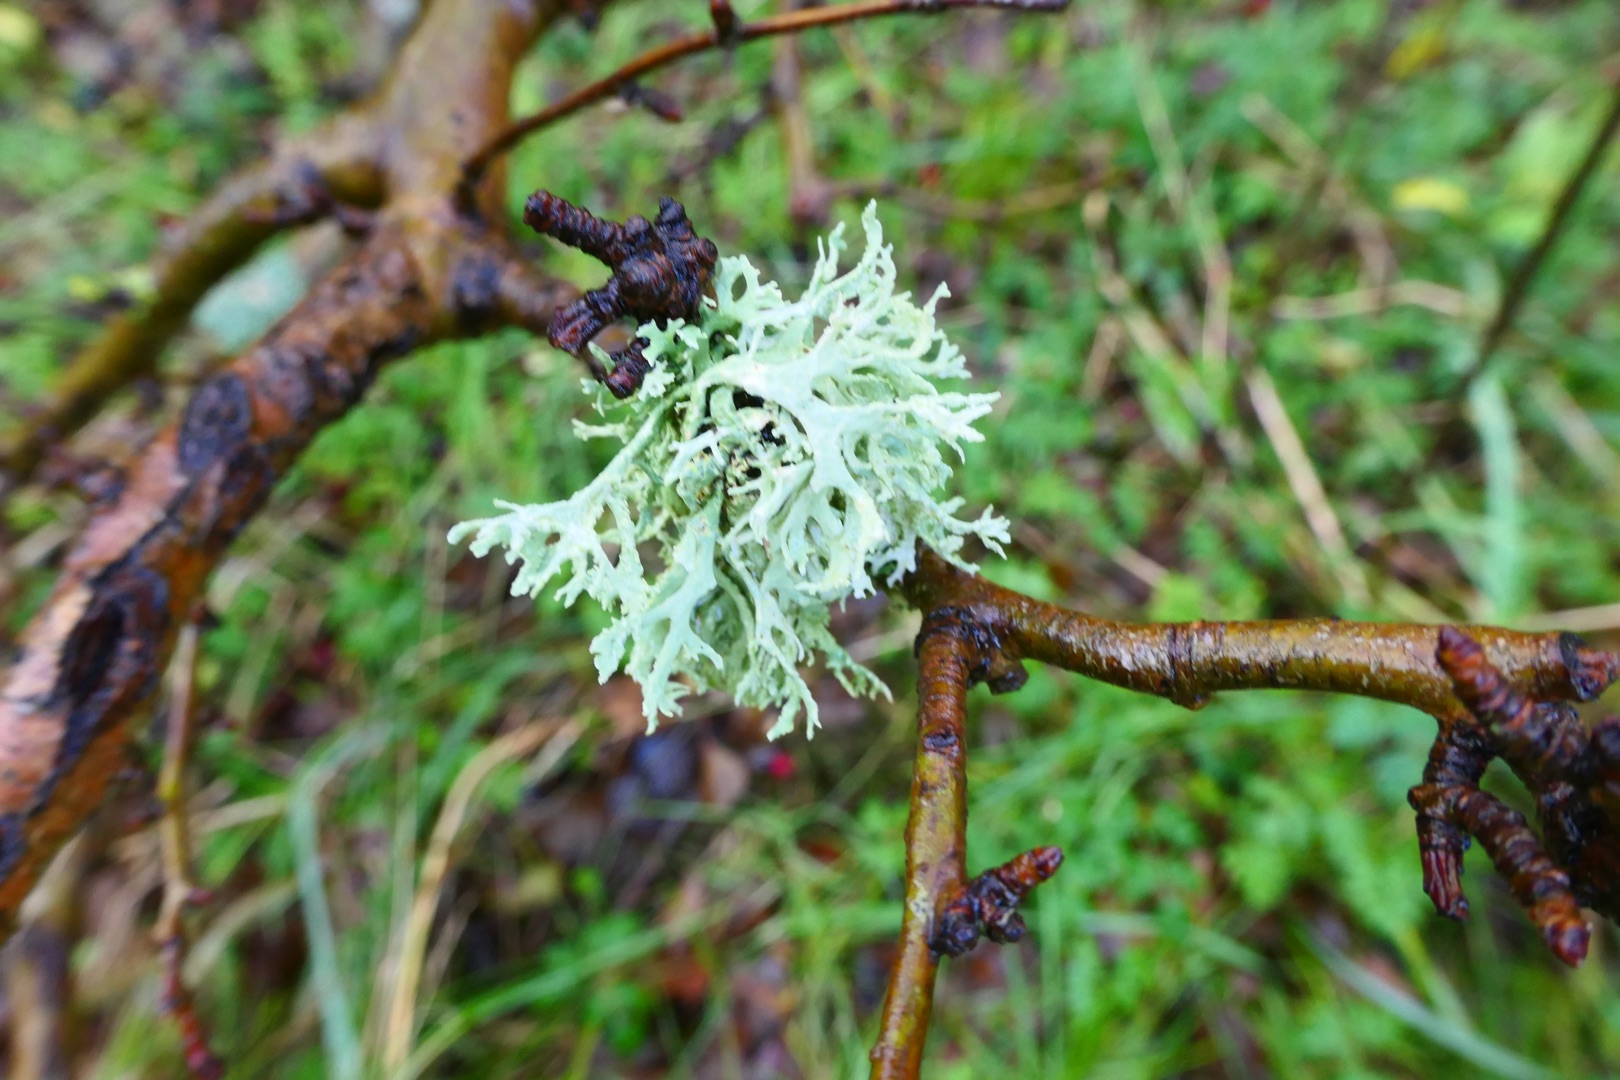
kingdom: Fungi
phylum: Ascomycota
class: Lecanoromycetes
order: Lecanorales
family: Parmeliaceae
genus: Evernia
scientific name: Evernia prunastri
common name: Almindelig slåenlav
